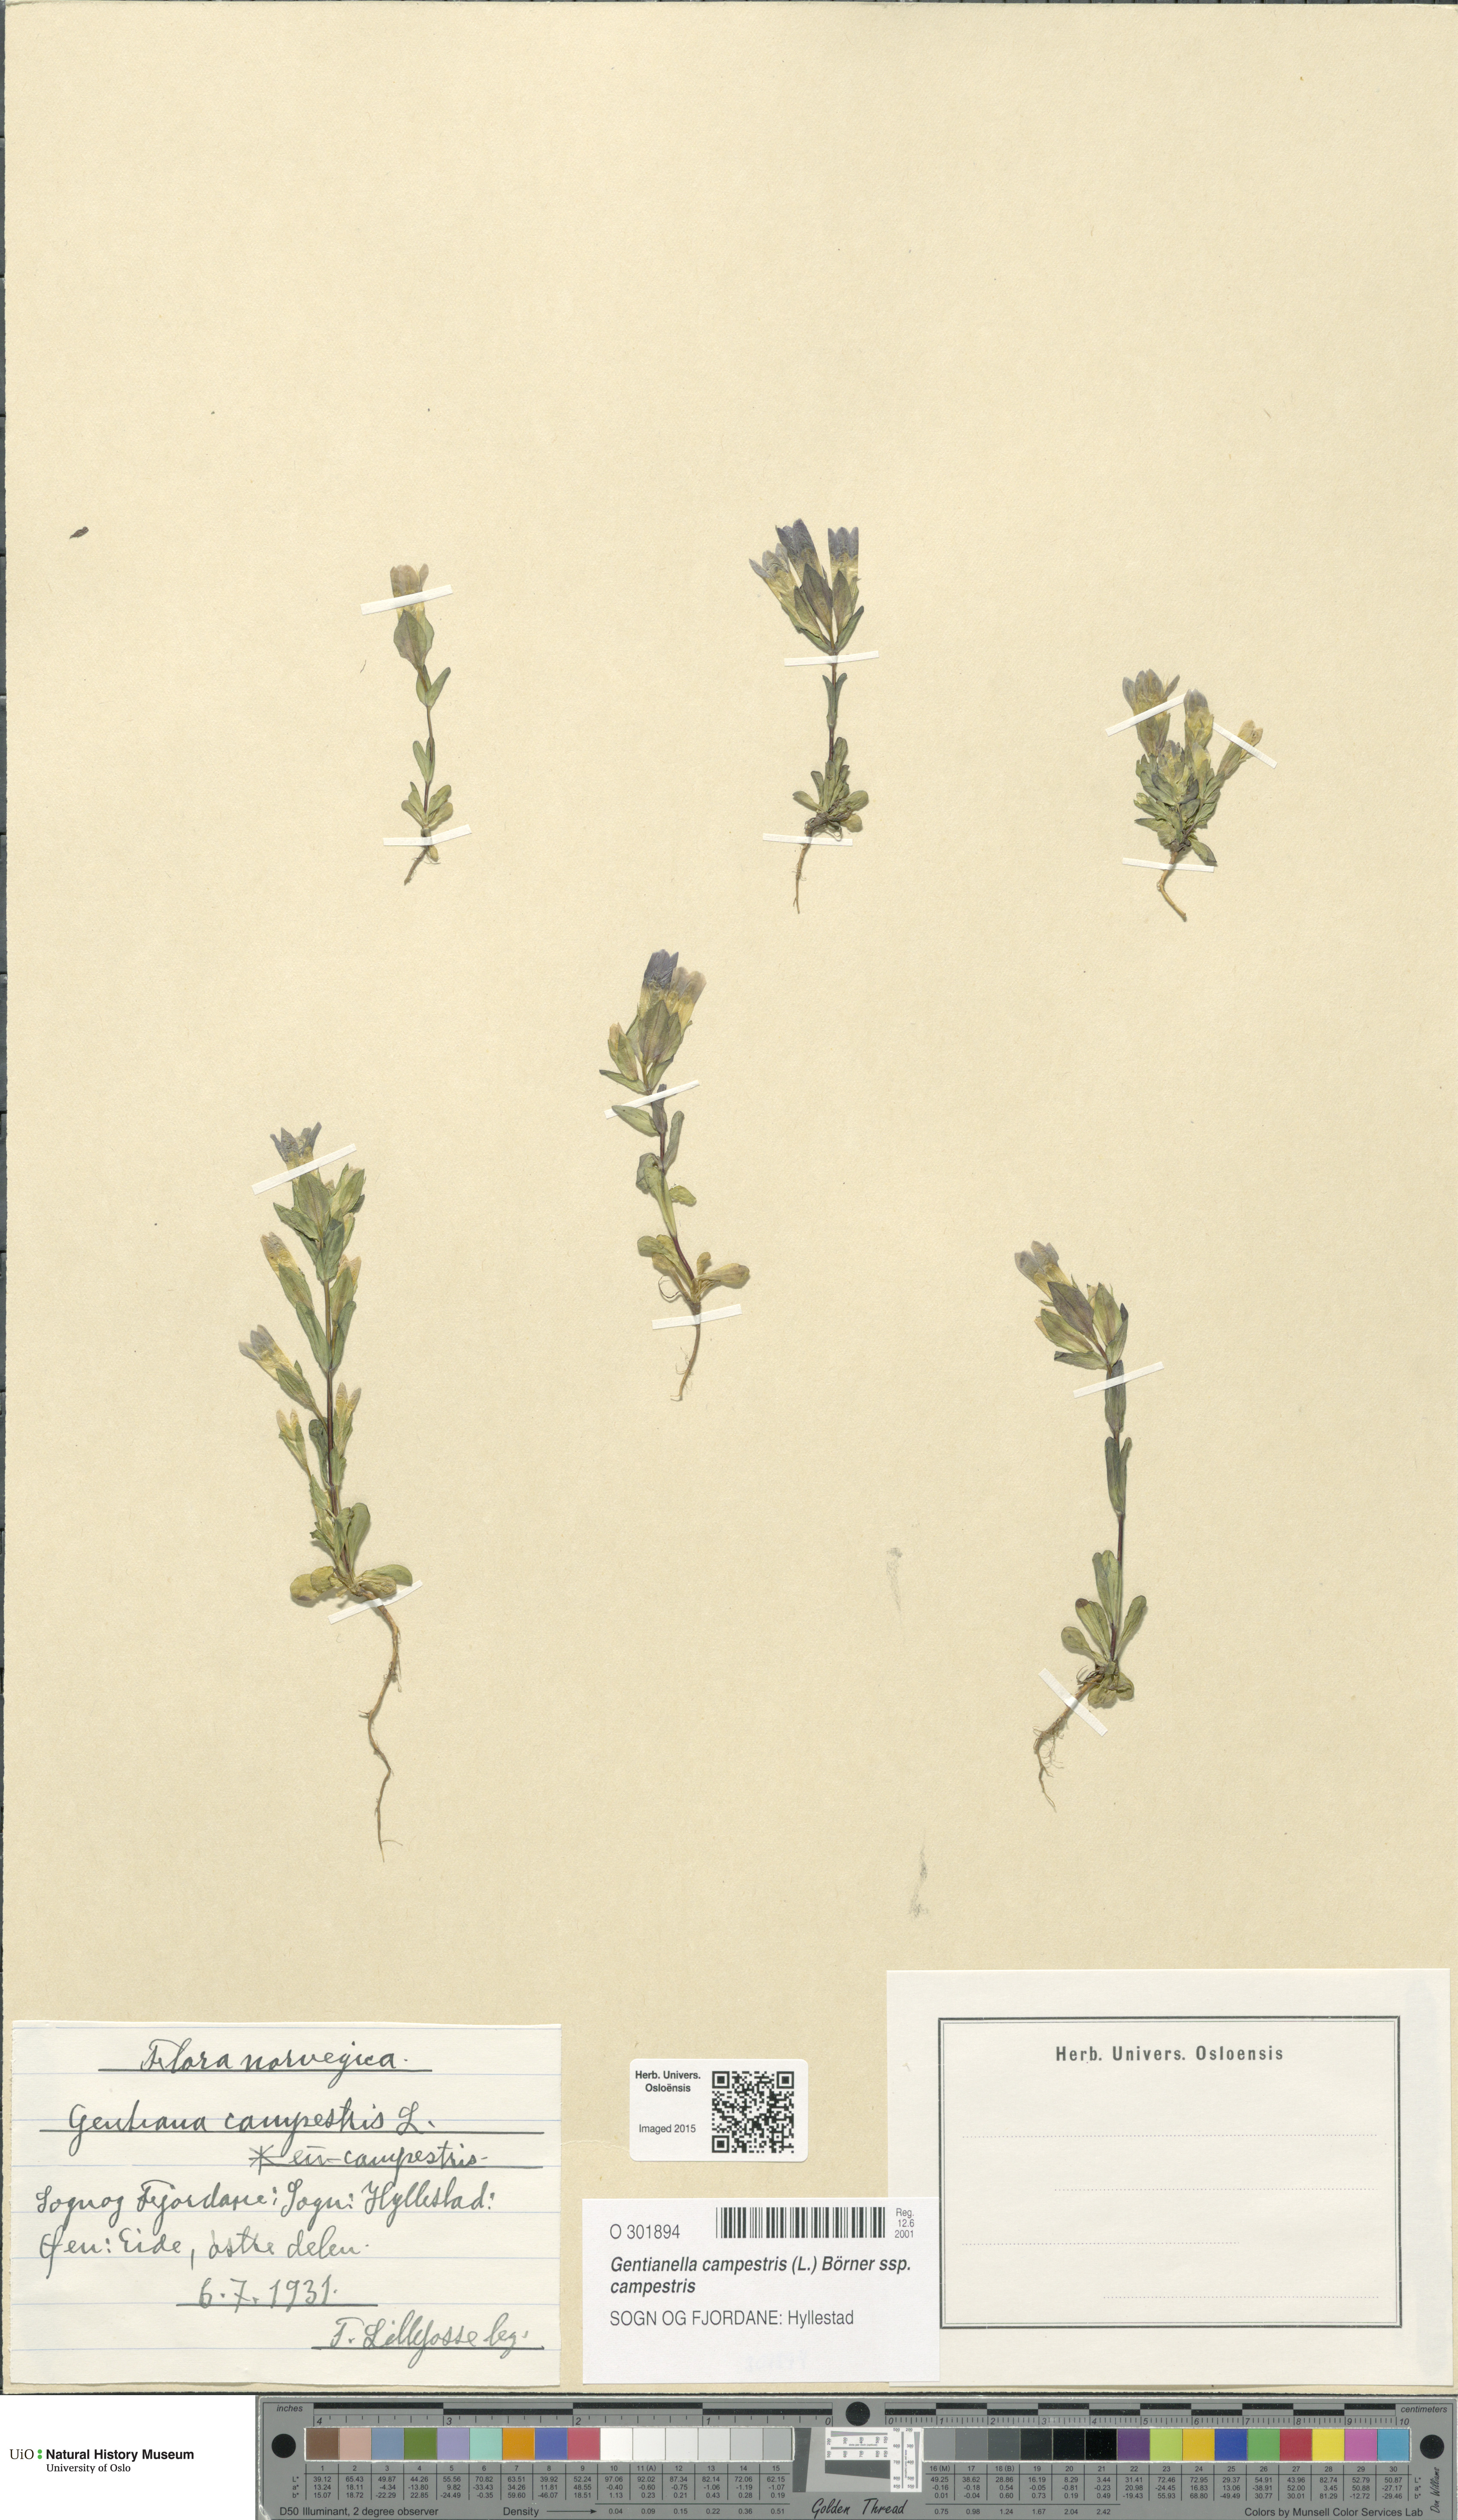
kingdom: Plantae
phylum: Tracheophyta
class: Magnoliopsida
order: Gentianales
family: Gentianaceae
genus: Gentianella
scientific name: Gentianella campestris
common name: Field gentian
